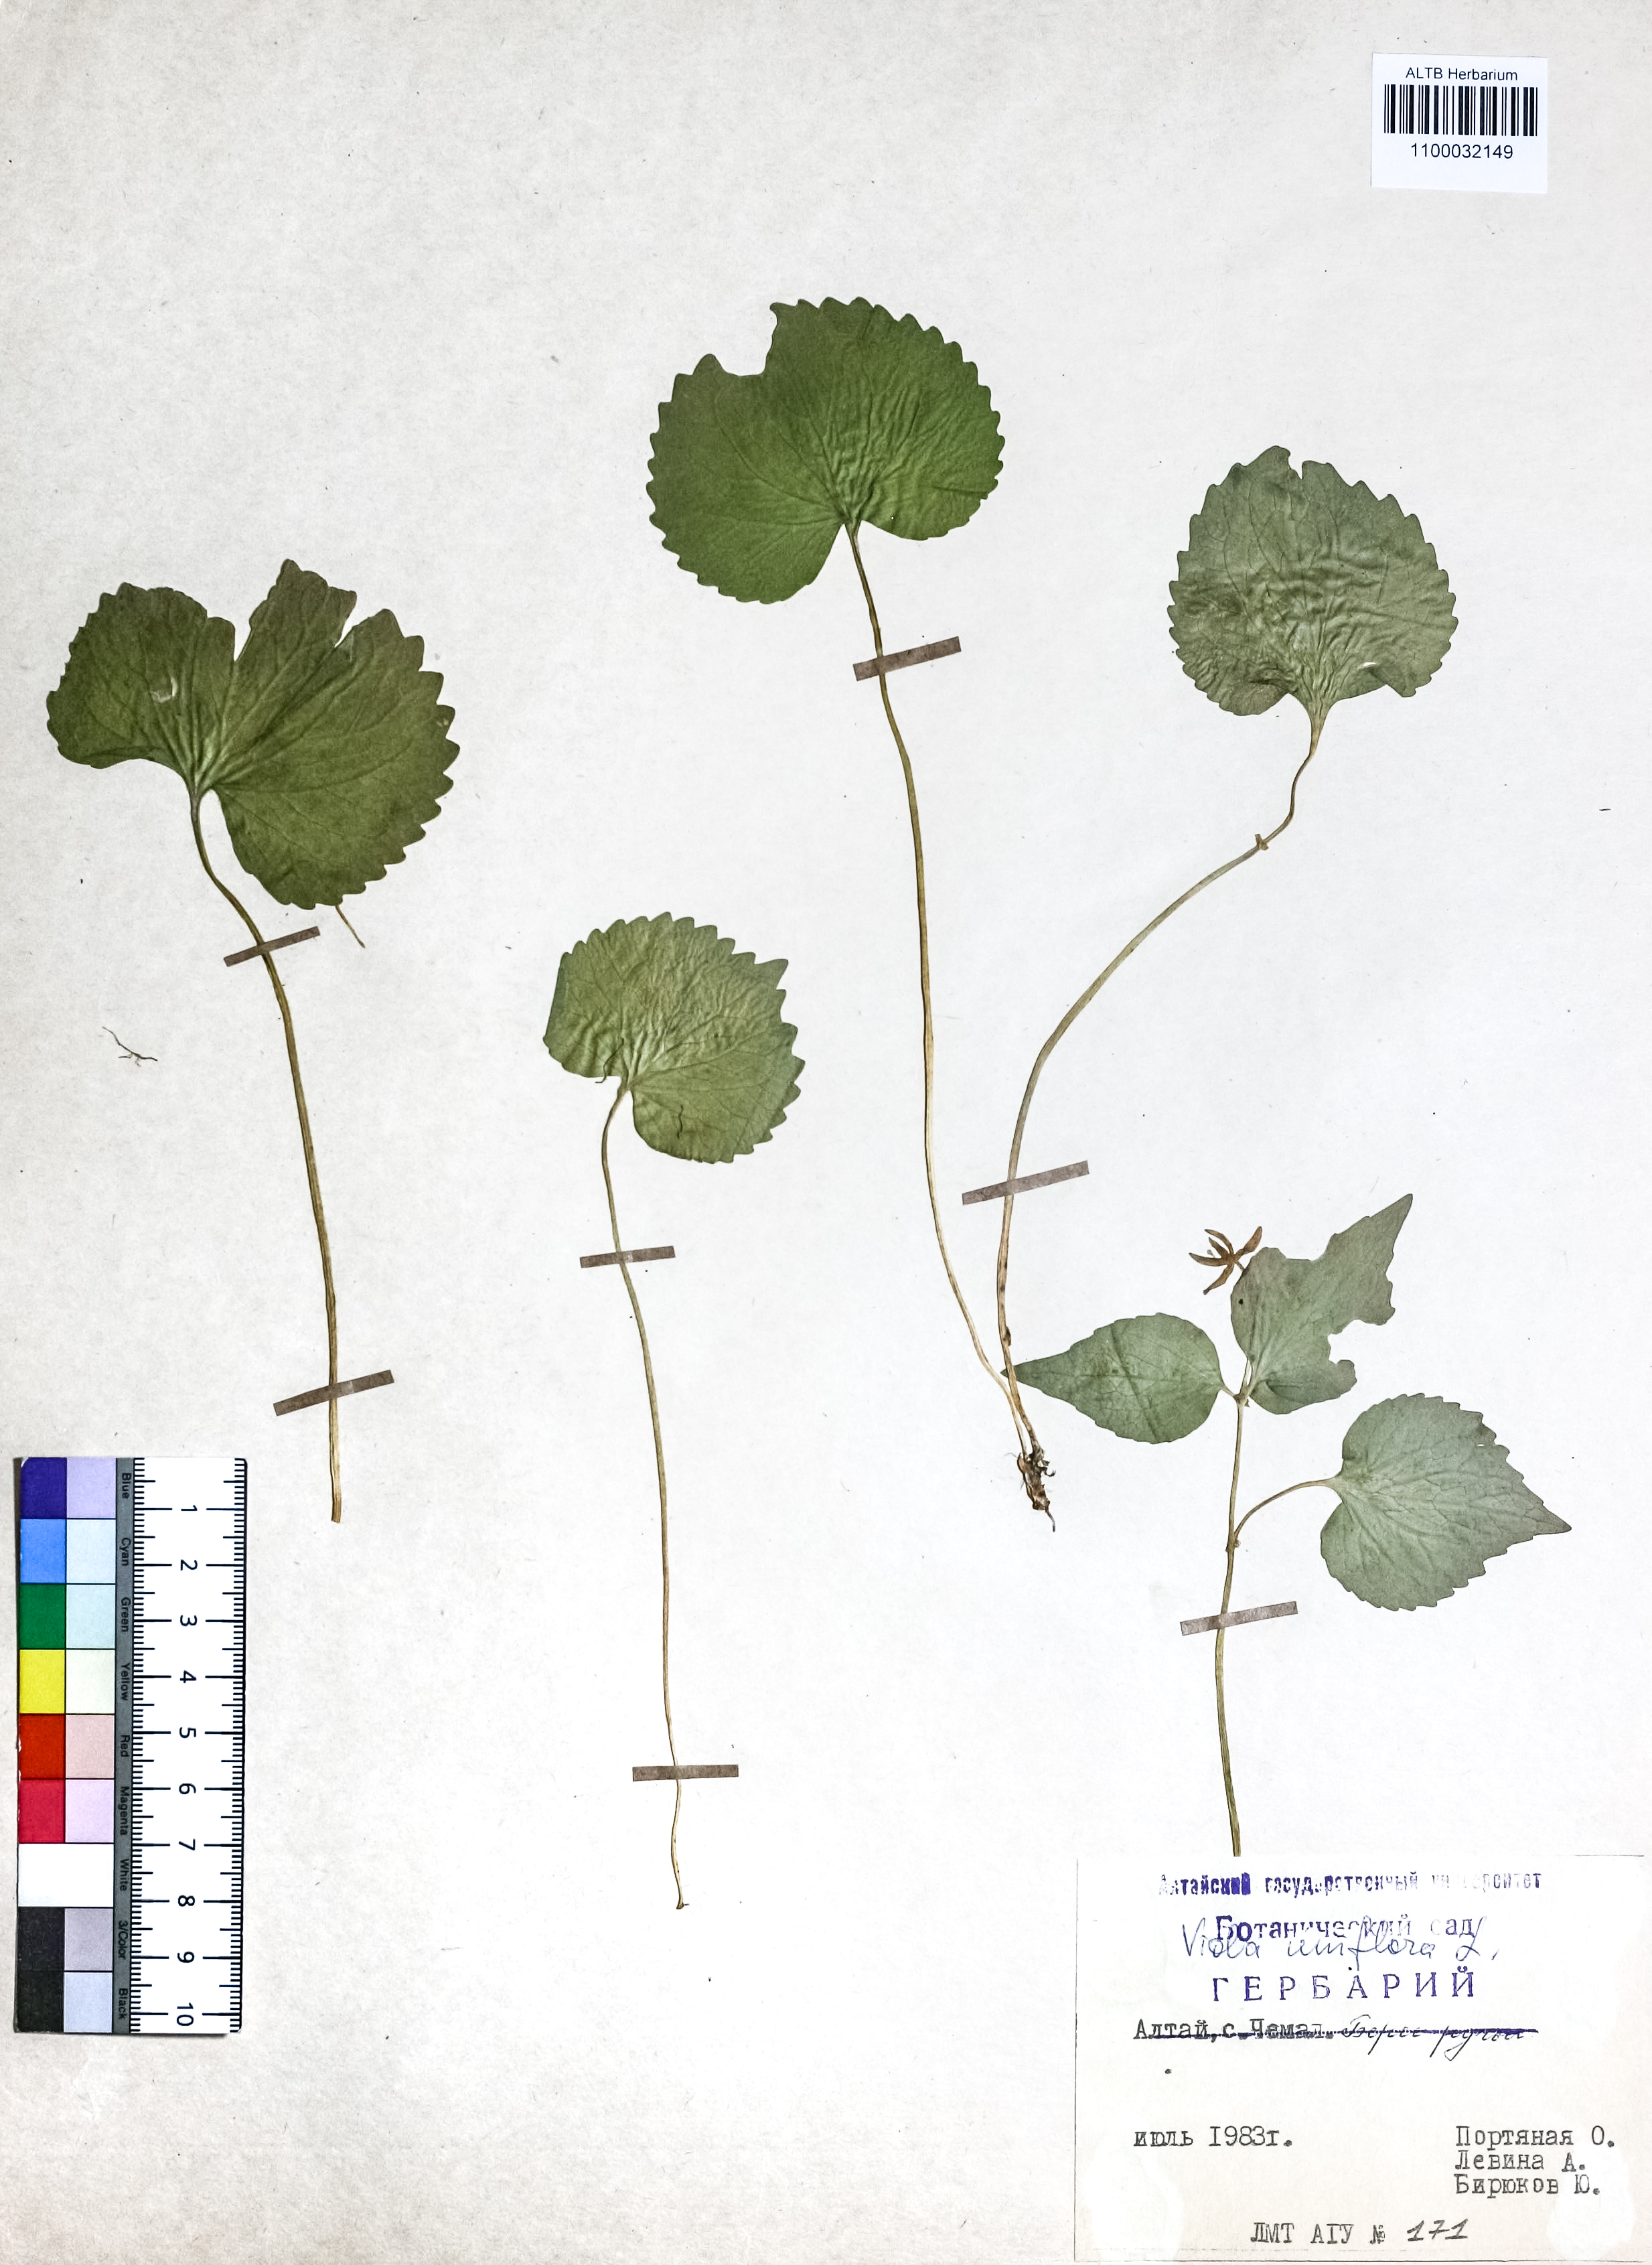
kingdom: Plantae
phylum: Tracheophyta
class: Magnoliopsida
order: Malpighiales
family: Violaceae
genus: Viola
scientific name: Viola uniflora
